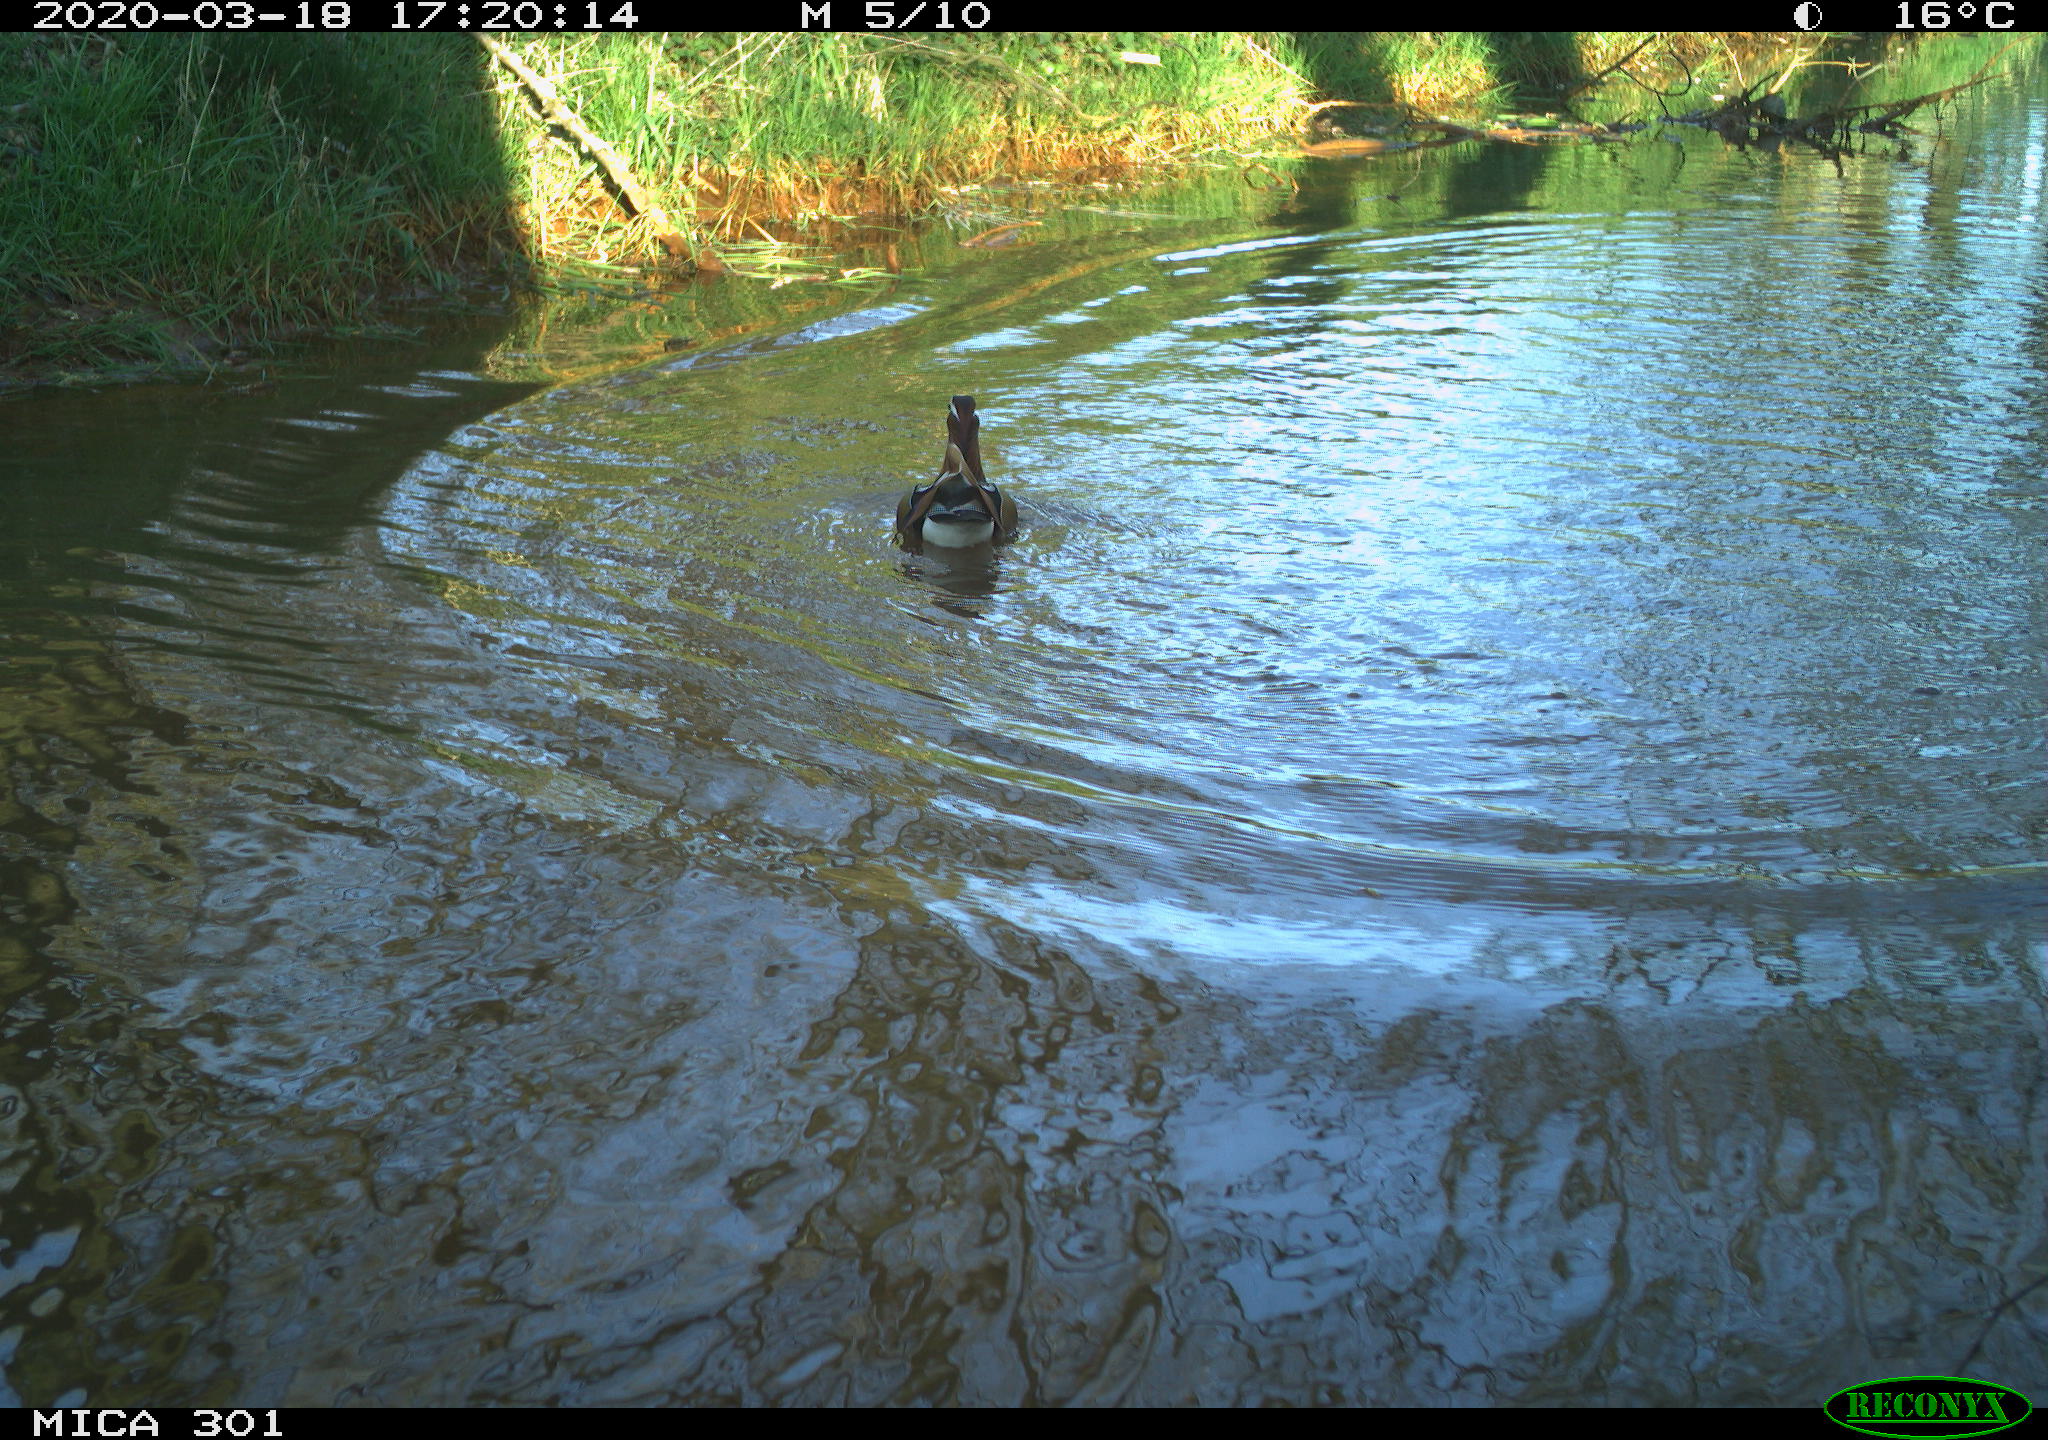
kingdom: Animalia
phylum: Chordata
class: Aves
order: Anseriformes
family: Anatidae
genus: Aix
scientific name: Aix galericulata
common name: Mandarin duck
